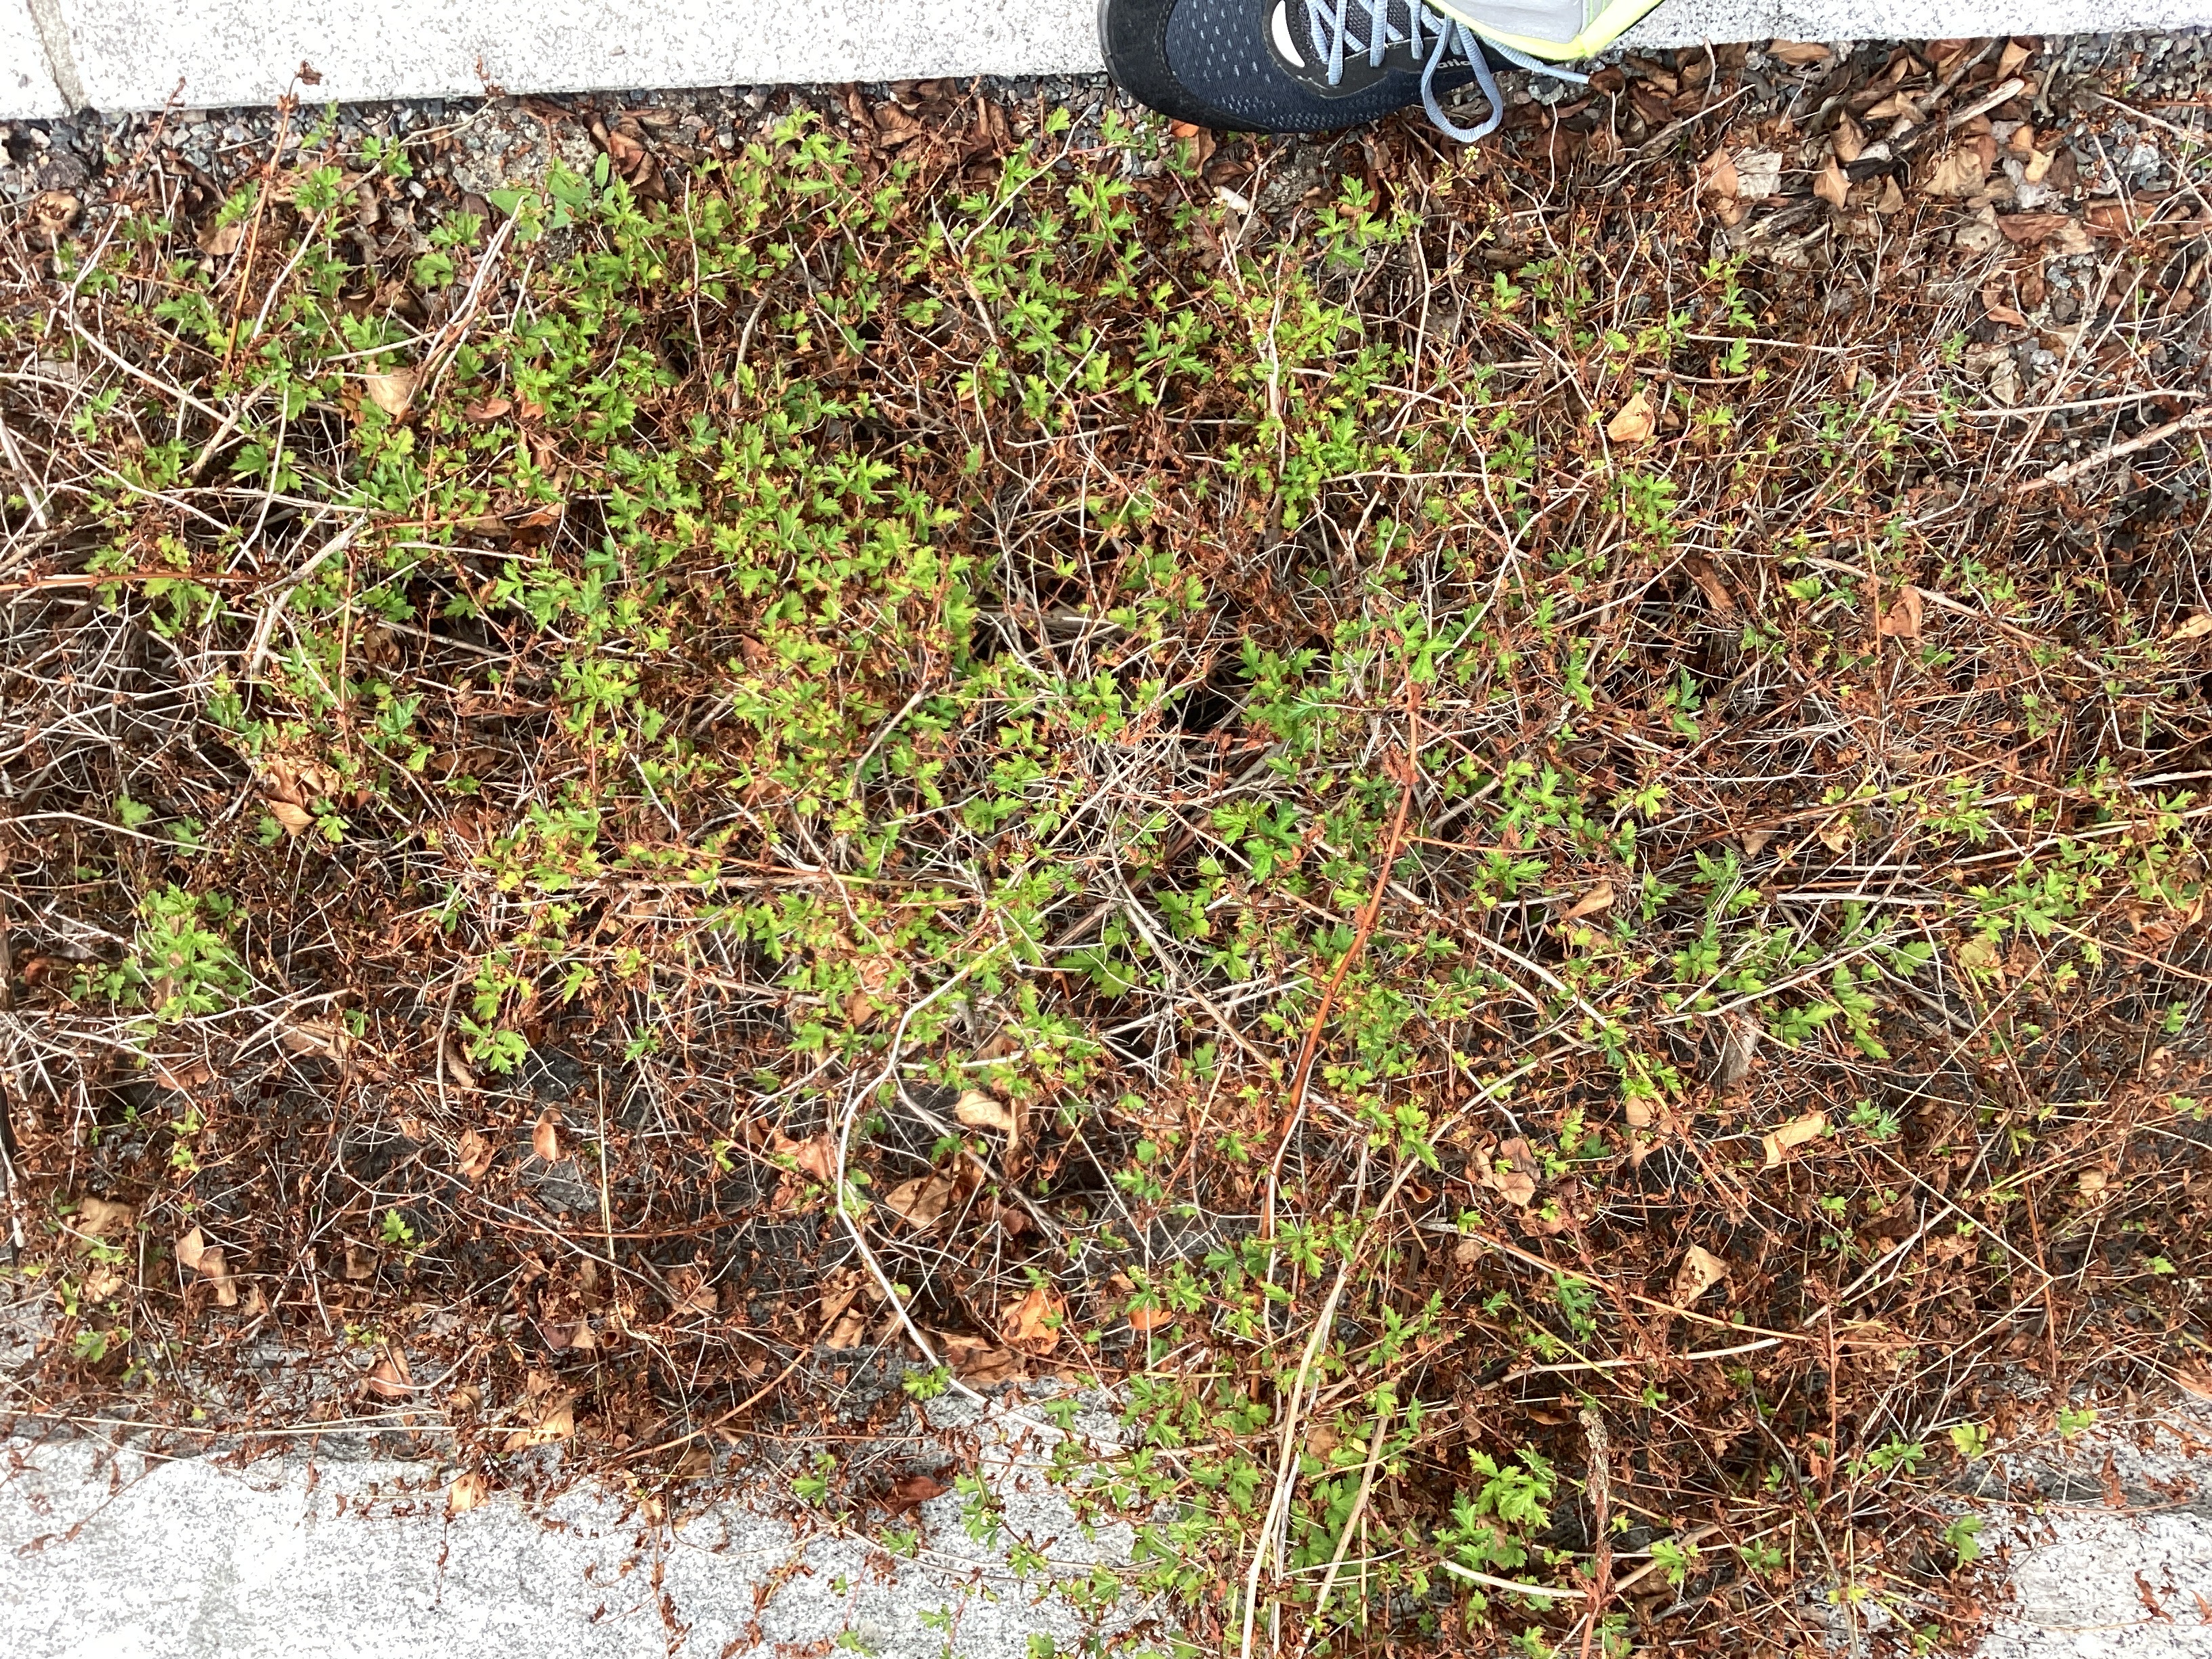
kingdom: Plantae
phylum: Tracheophyta
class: Magnoliopsida
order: Rosales
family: Rosaceae
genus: Neillia
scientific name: Neillia incisa
